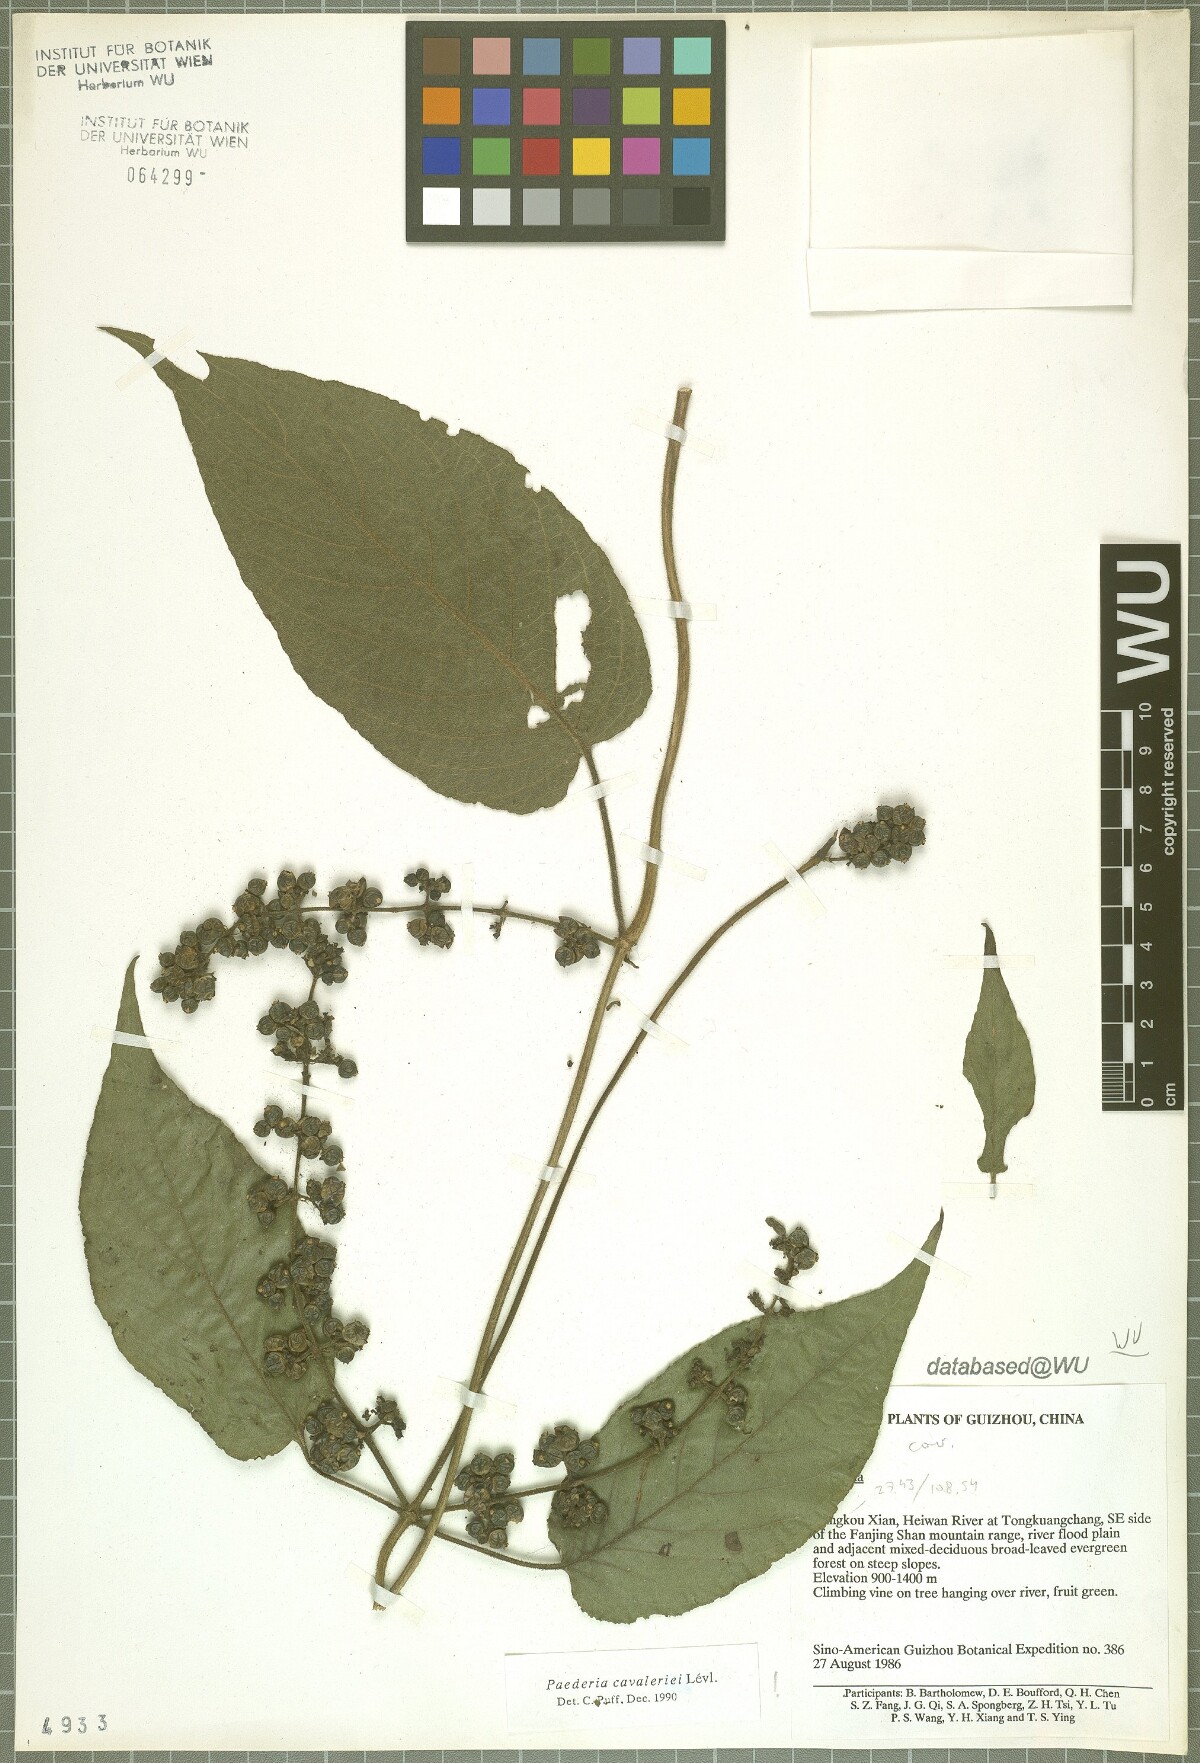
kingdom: Plantae
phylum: Tracheophyta
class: Magnoliopsida
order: Gentianales
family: Rubiaceae
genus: Paederia
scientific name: Paederia cavaleriei
